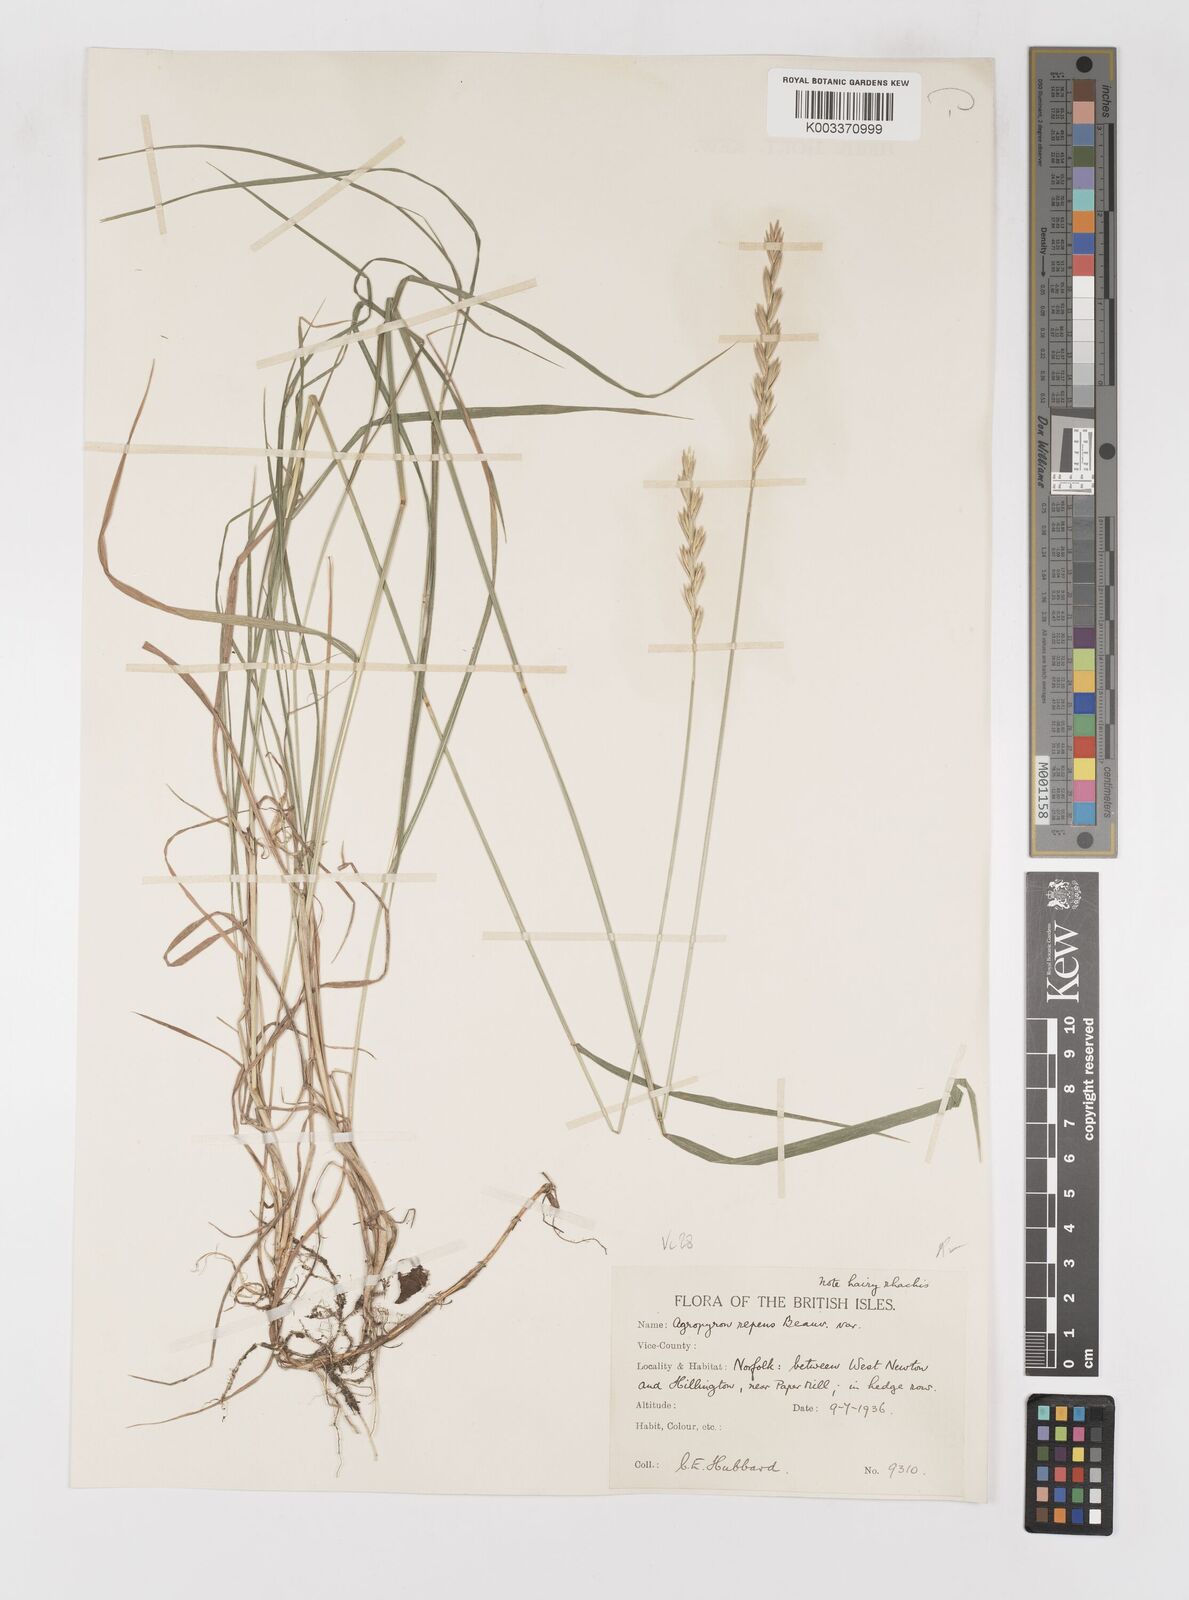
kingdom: Plantae
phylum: Tracheophyta
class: Liliopsida
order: Poales
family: Poaceae
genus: Elymus
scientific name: Elymus repens
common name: Quackgrass
